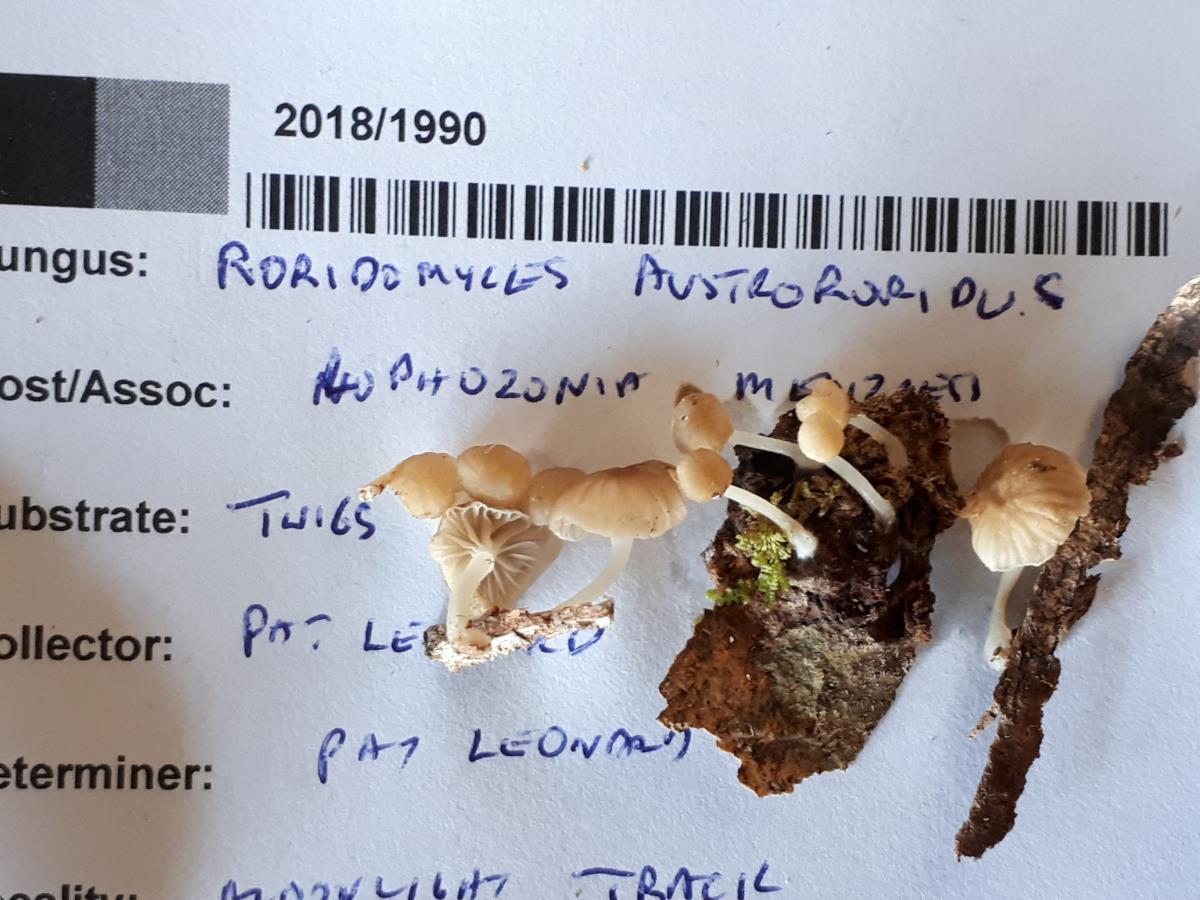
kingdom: Fungi
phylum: Basidiomycota
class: Agaricomycetes
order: Agaricales
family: Mycenaceae
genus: Roridomyces
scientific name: Roridomyces
